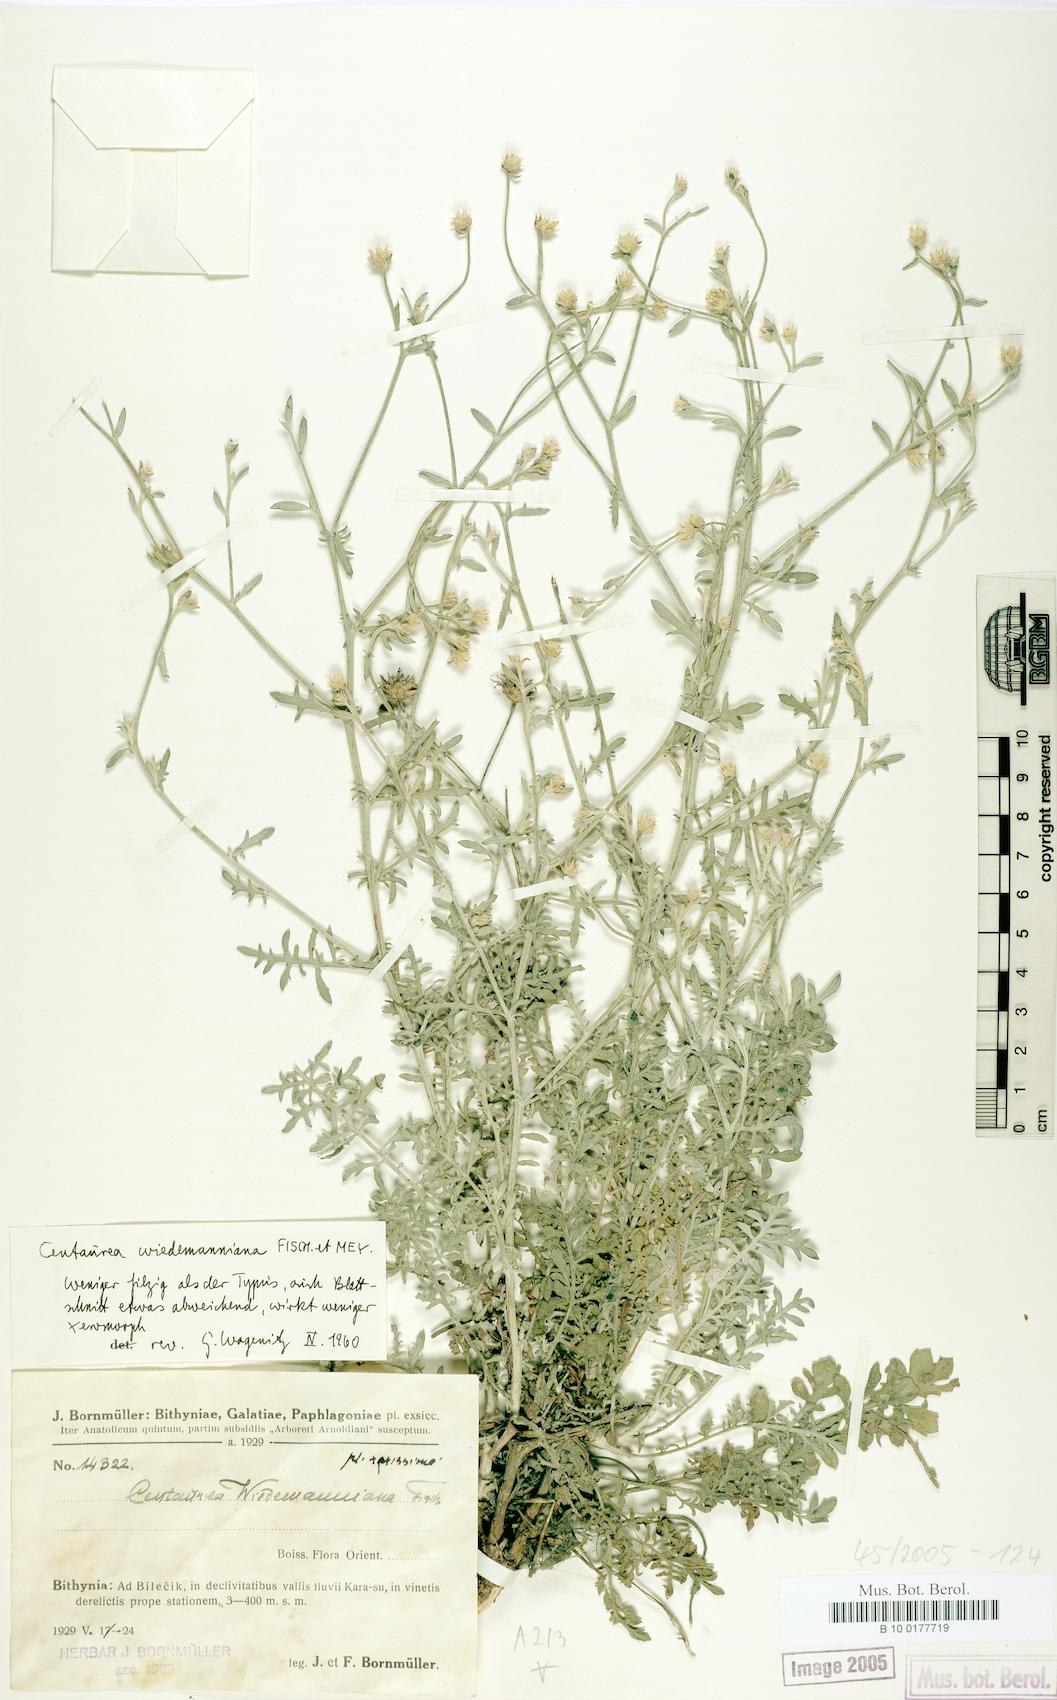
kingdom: Plantae
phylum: Tracheophyta
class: Magnoliopsida
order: Asterales
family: Asteraceae
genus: Centaurea
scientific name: Centaurea wiedemanniana
